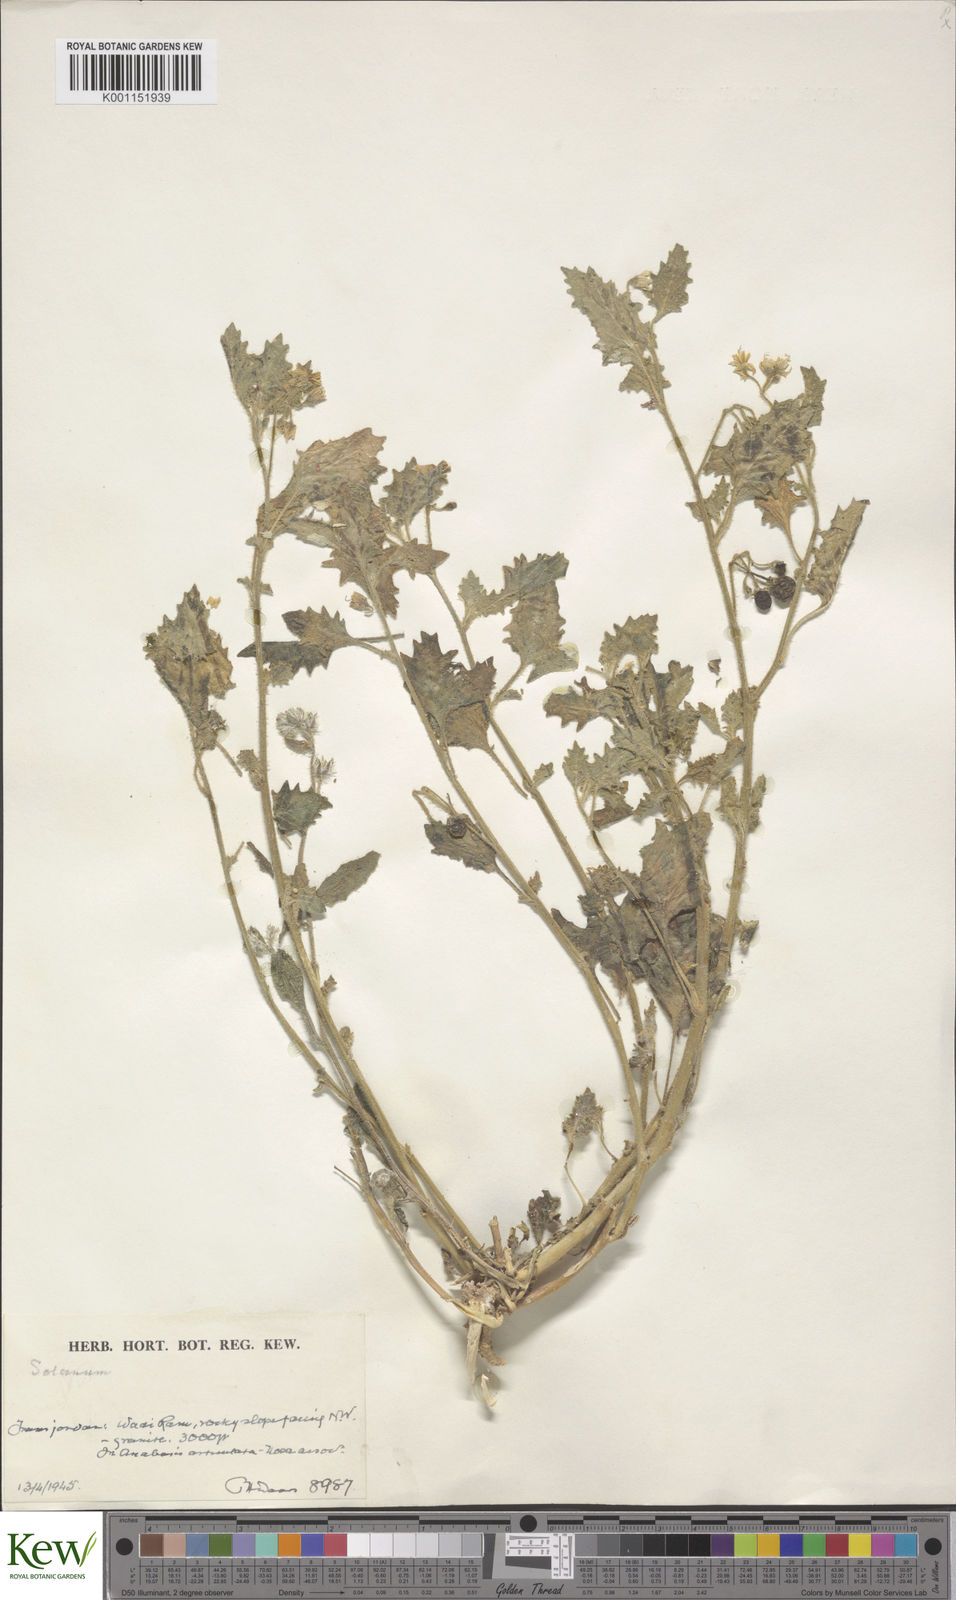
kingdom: Plantae
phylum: Tracheophyta
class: Magnoliopsida
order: Solanales
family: Solanaceae
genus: Solanum
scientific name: Solanum villosum
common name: Red nightshade
